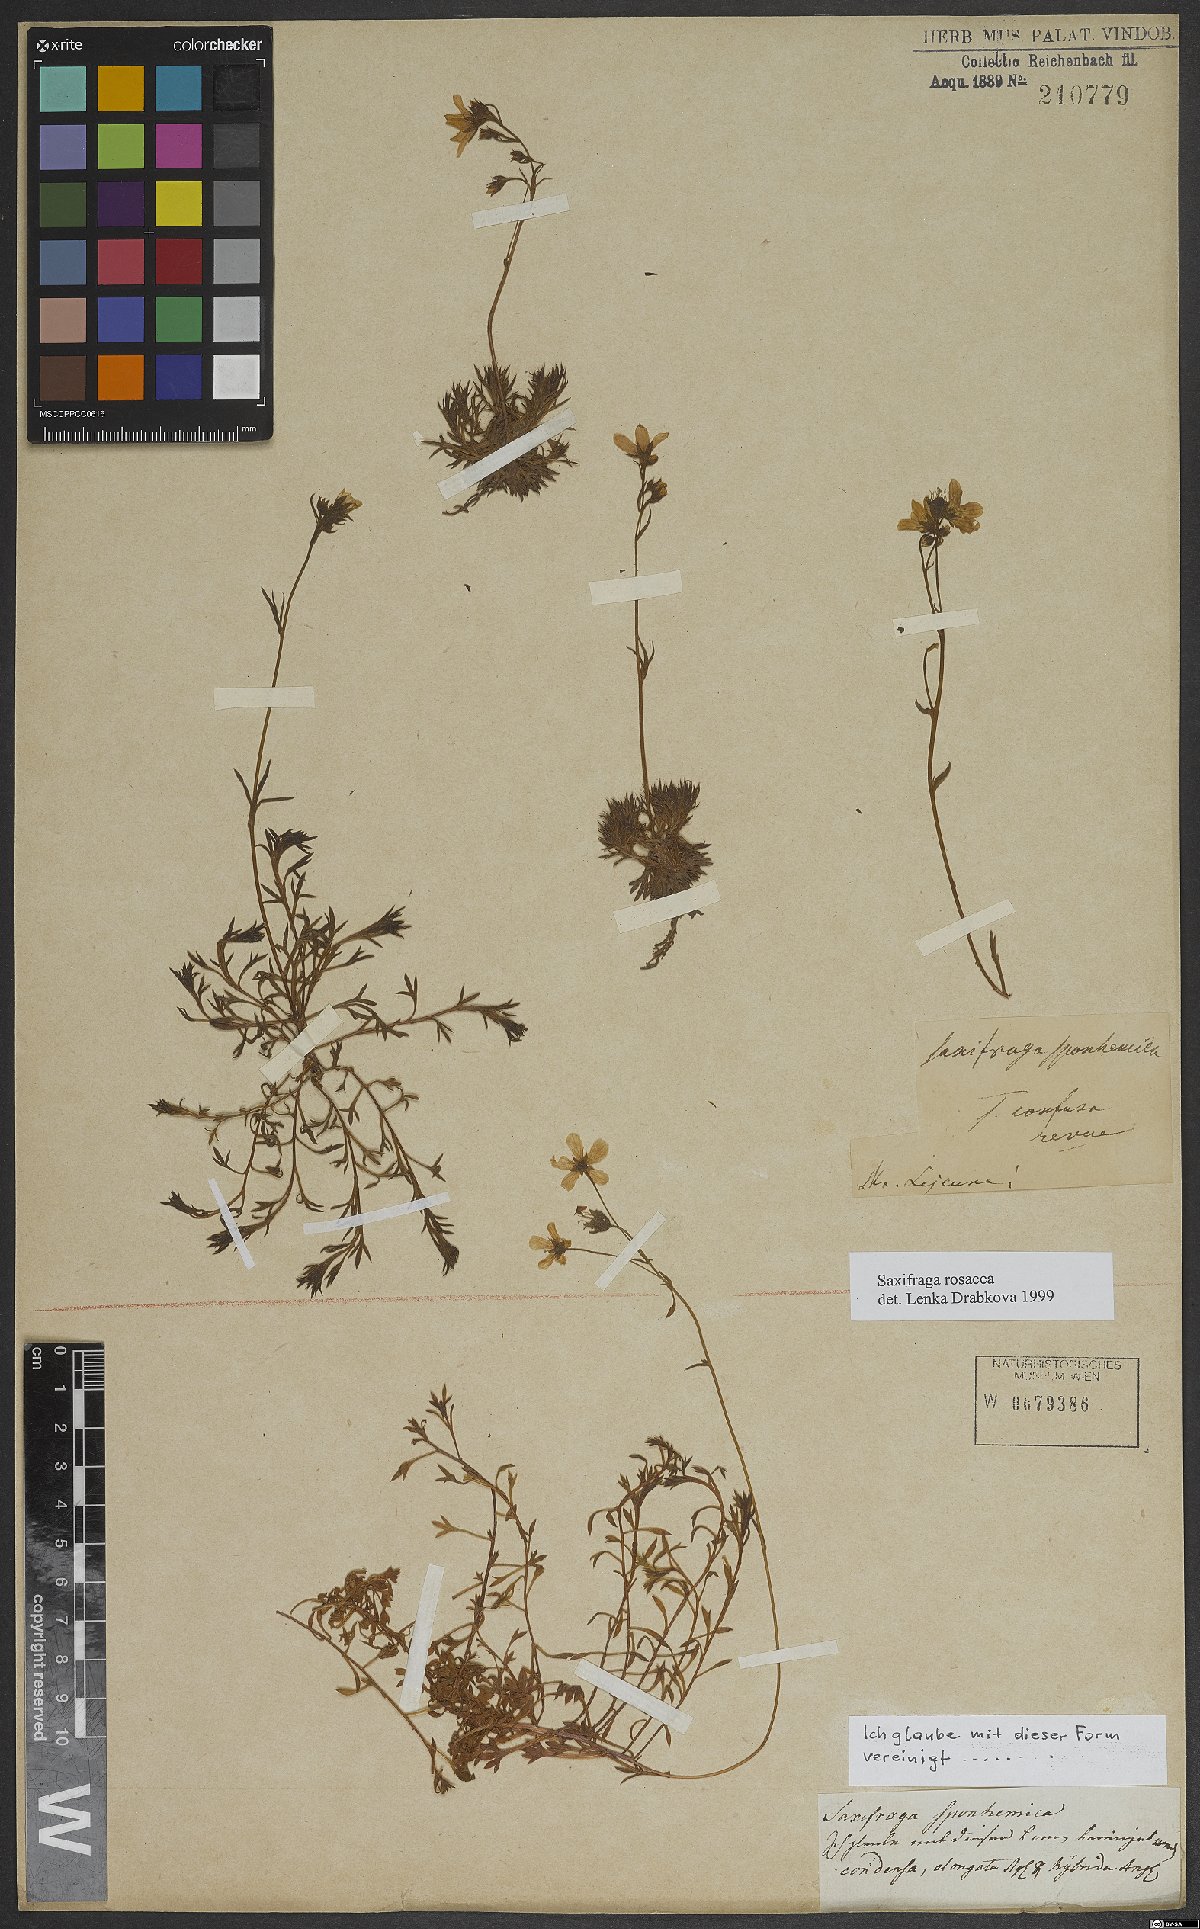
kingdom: Plantae
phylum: Tracheophyta
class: Magnoliopsida
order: Saxifragales
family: Saxifragaceae
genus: Saxifraga
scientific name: Saxifraga rosacea
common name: Irish saxifrage
